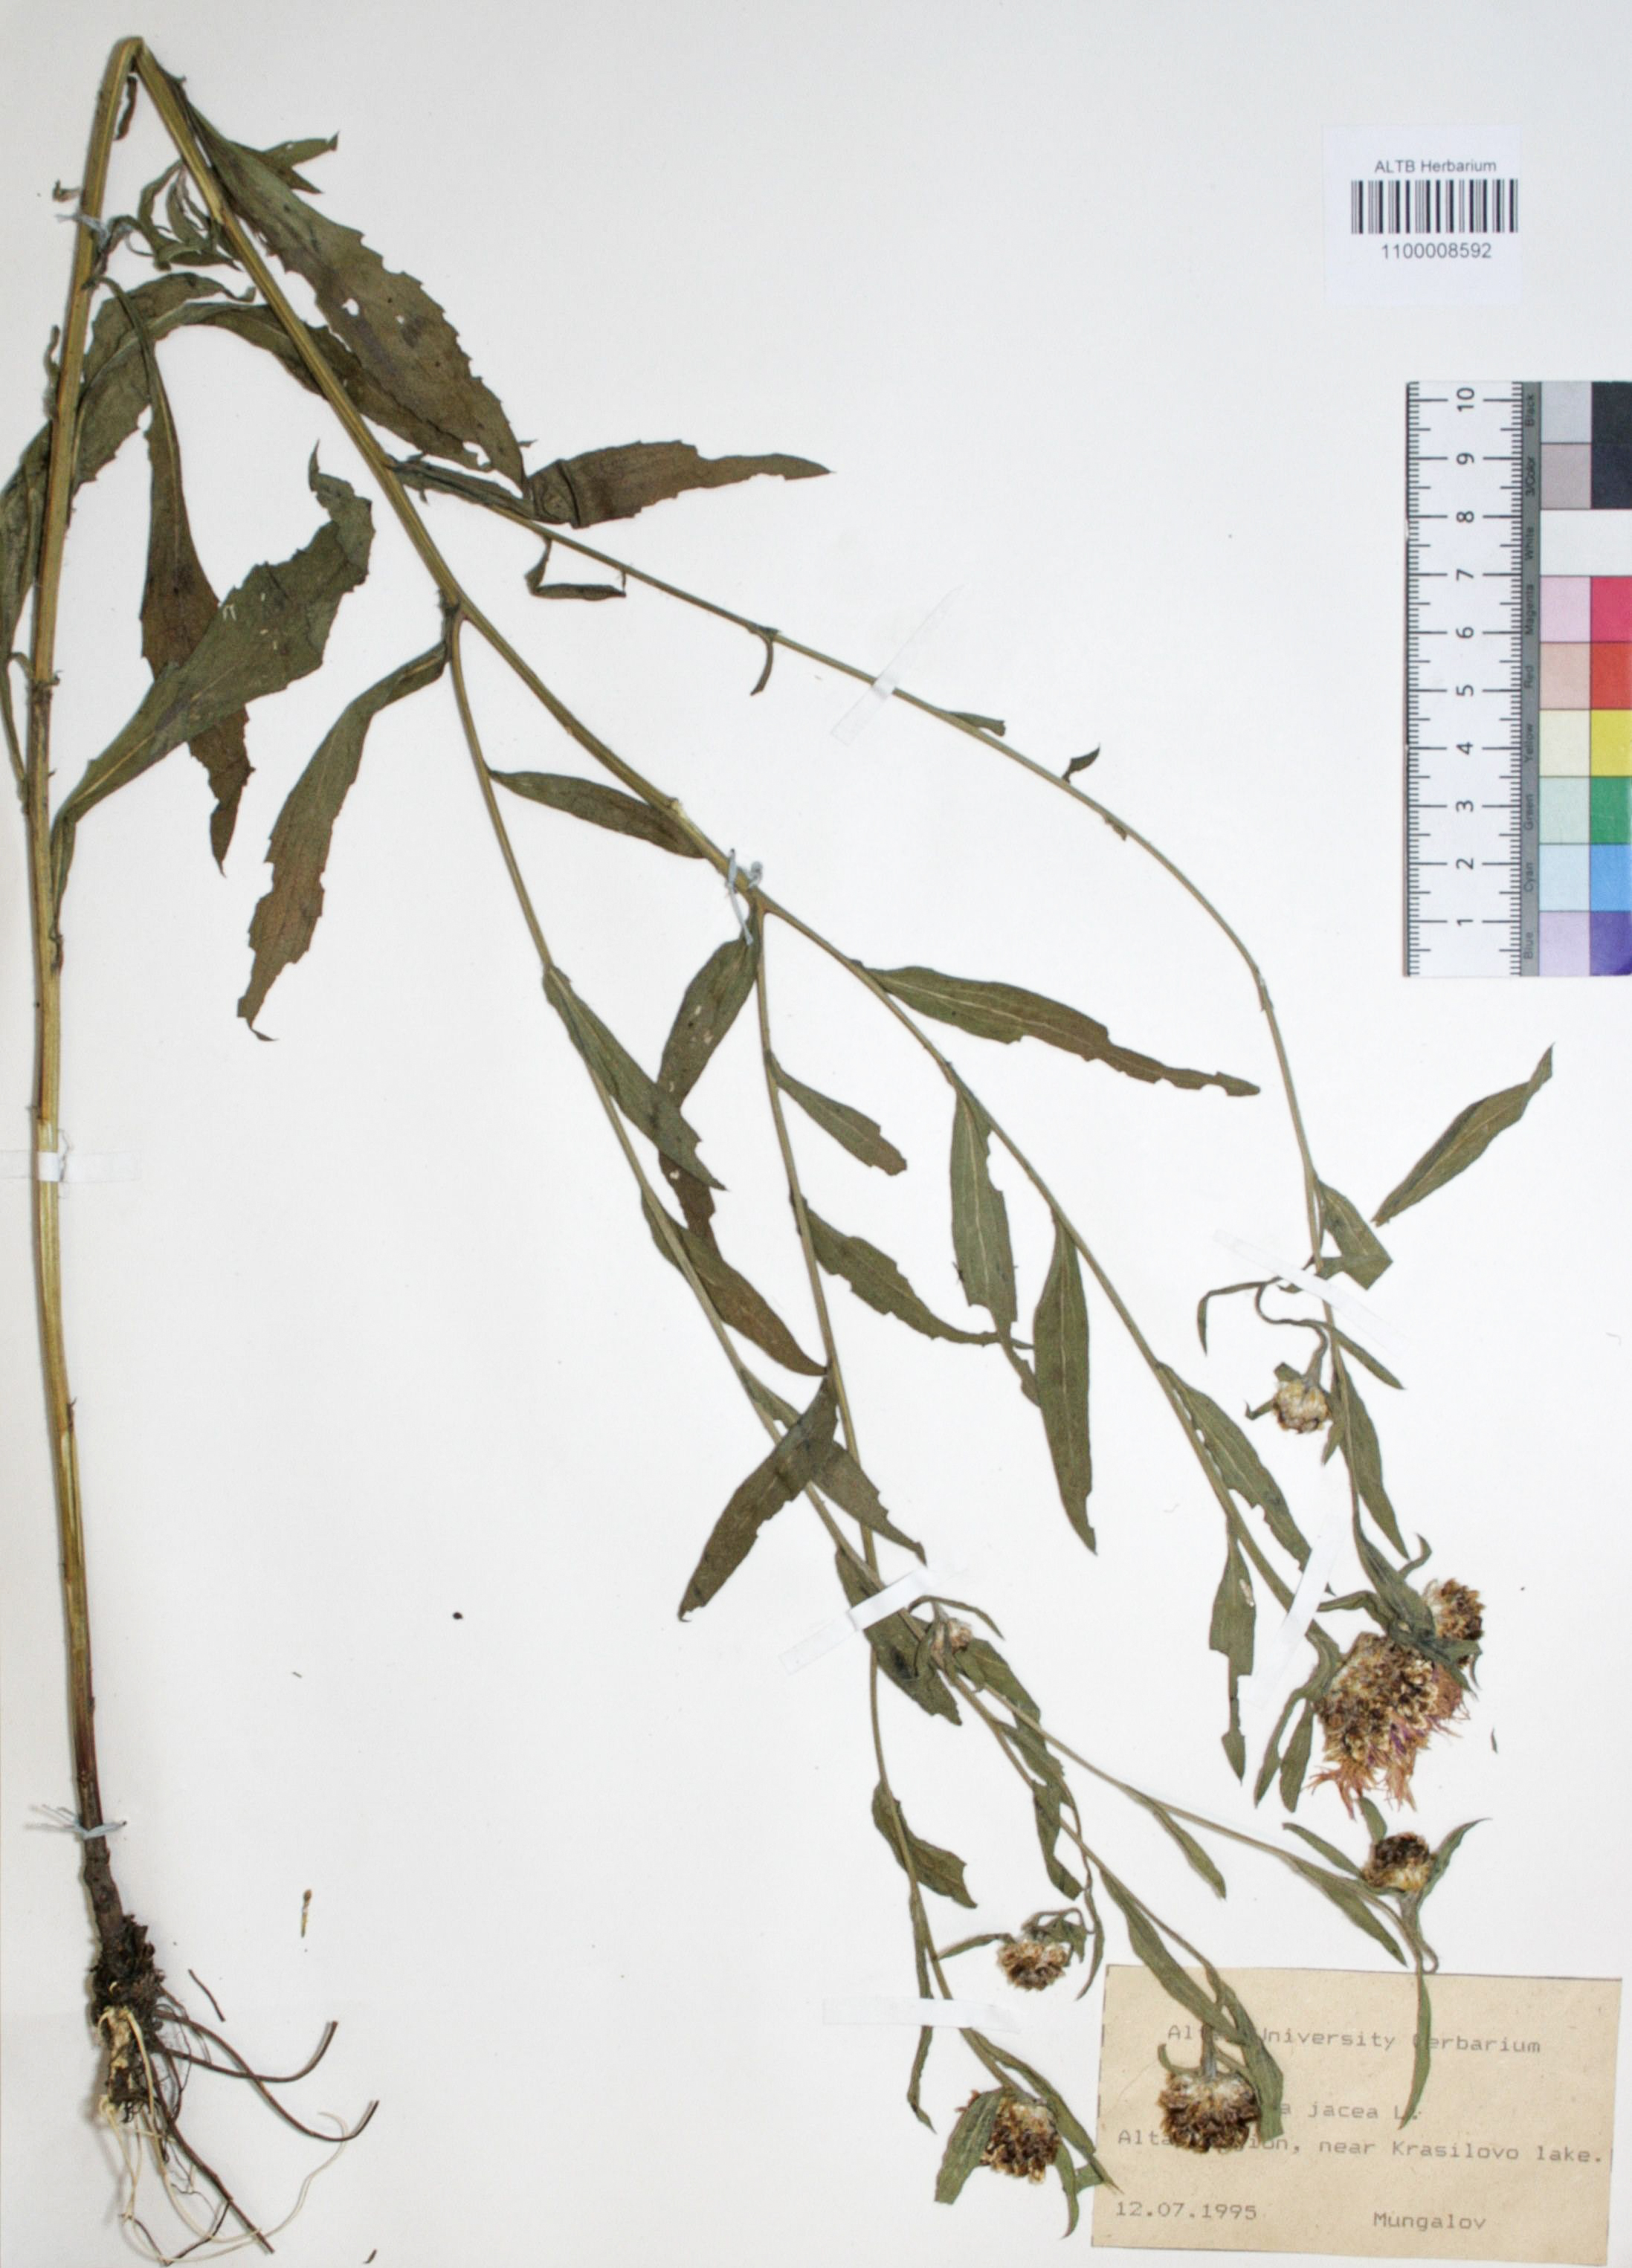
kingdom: Plantae
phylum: Tracheophyta
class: Magnoliopsida
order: Asterales
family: Asteraceae
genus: Centaurea
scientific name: Centaurea jacea
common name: Brown knapweed
